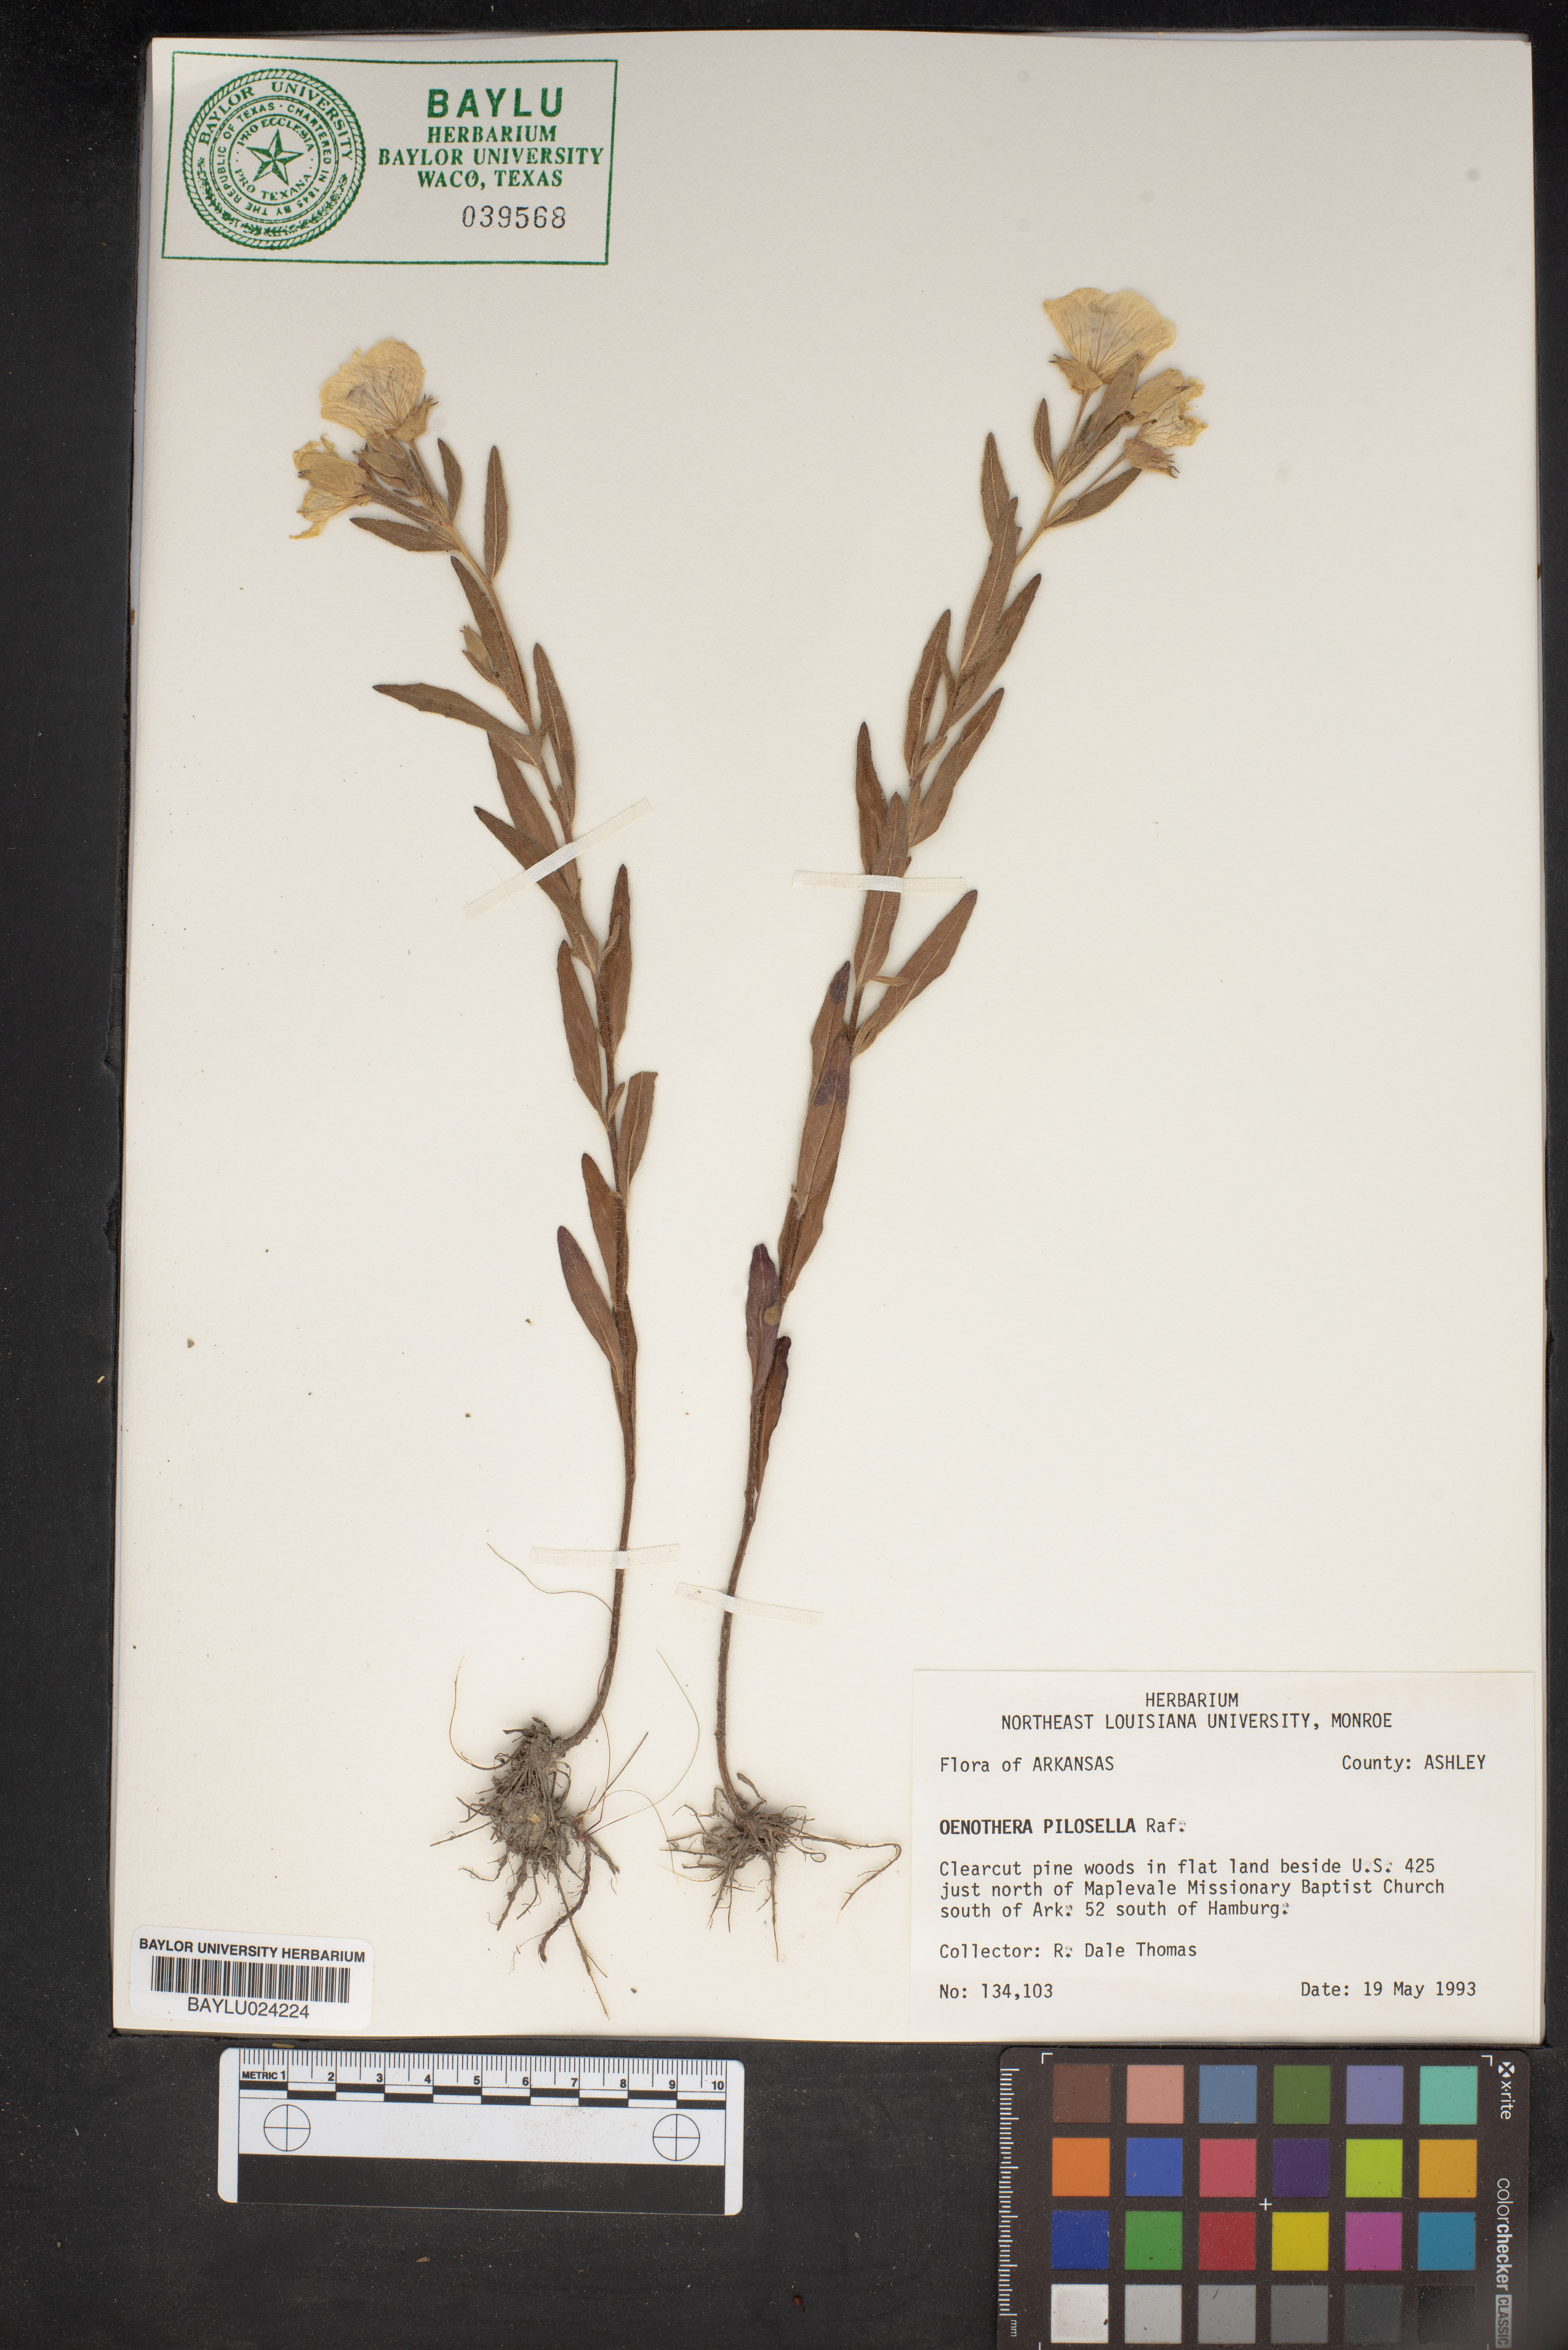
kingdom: Plantae
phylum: Tracheophyta
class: Magnoliopsida
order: Myrtales
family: Onagraceae
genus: Oenothera
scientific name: Oenothera pilosella
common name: Finely-pilose evening-primrose
